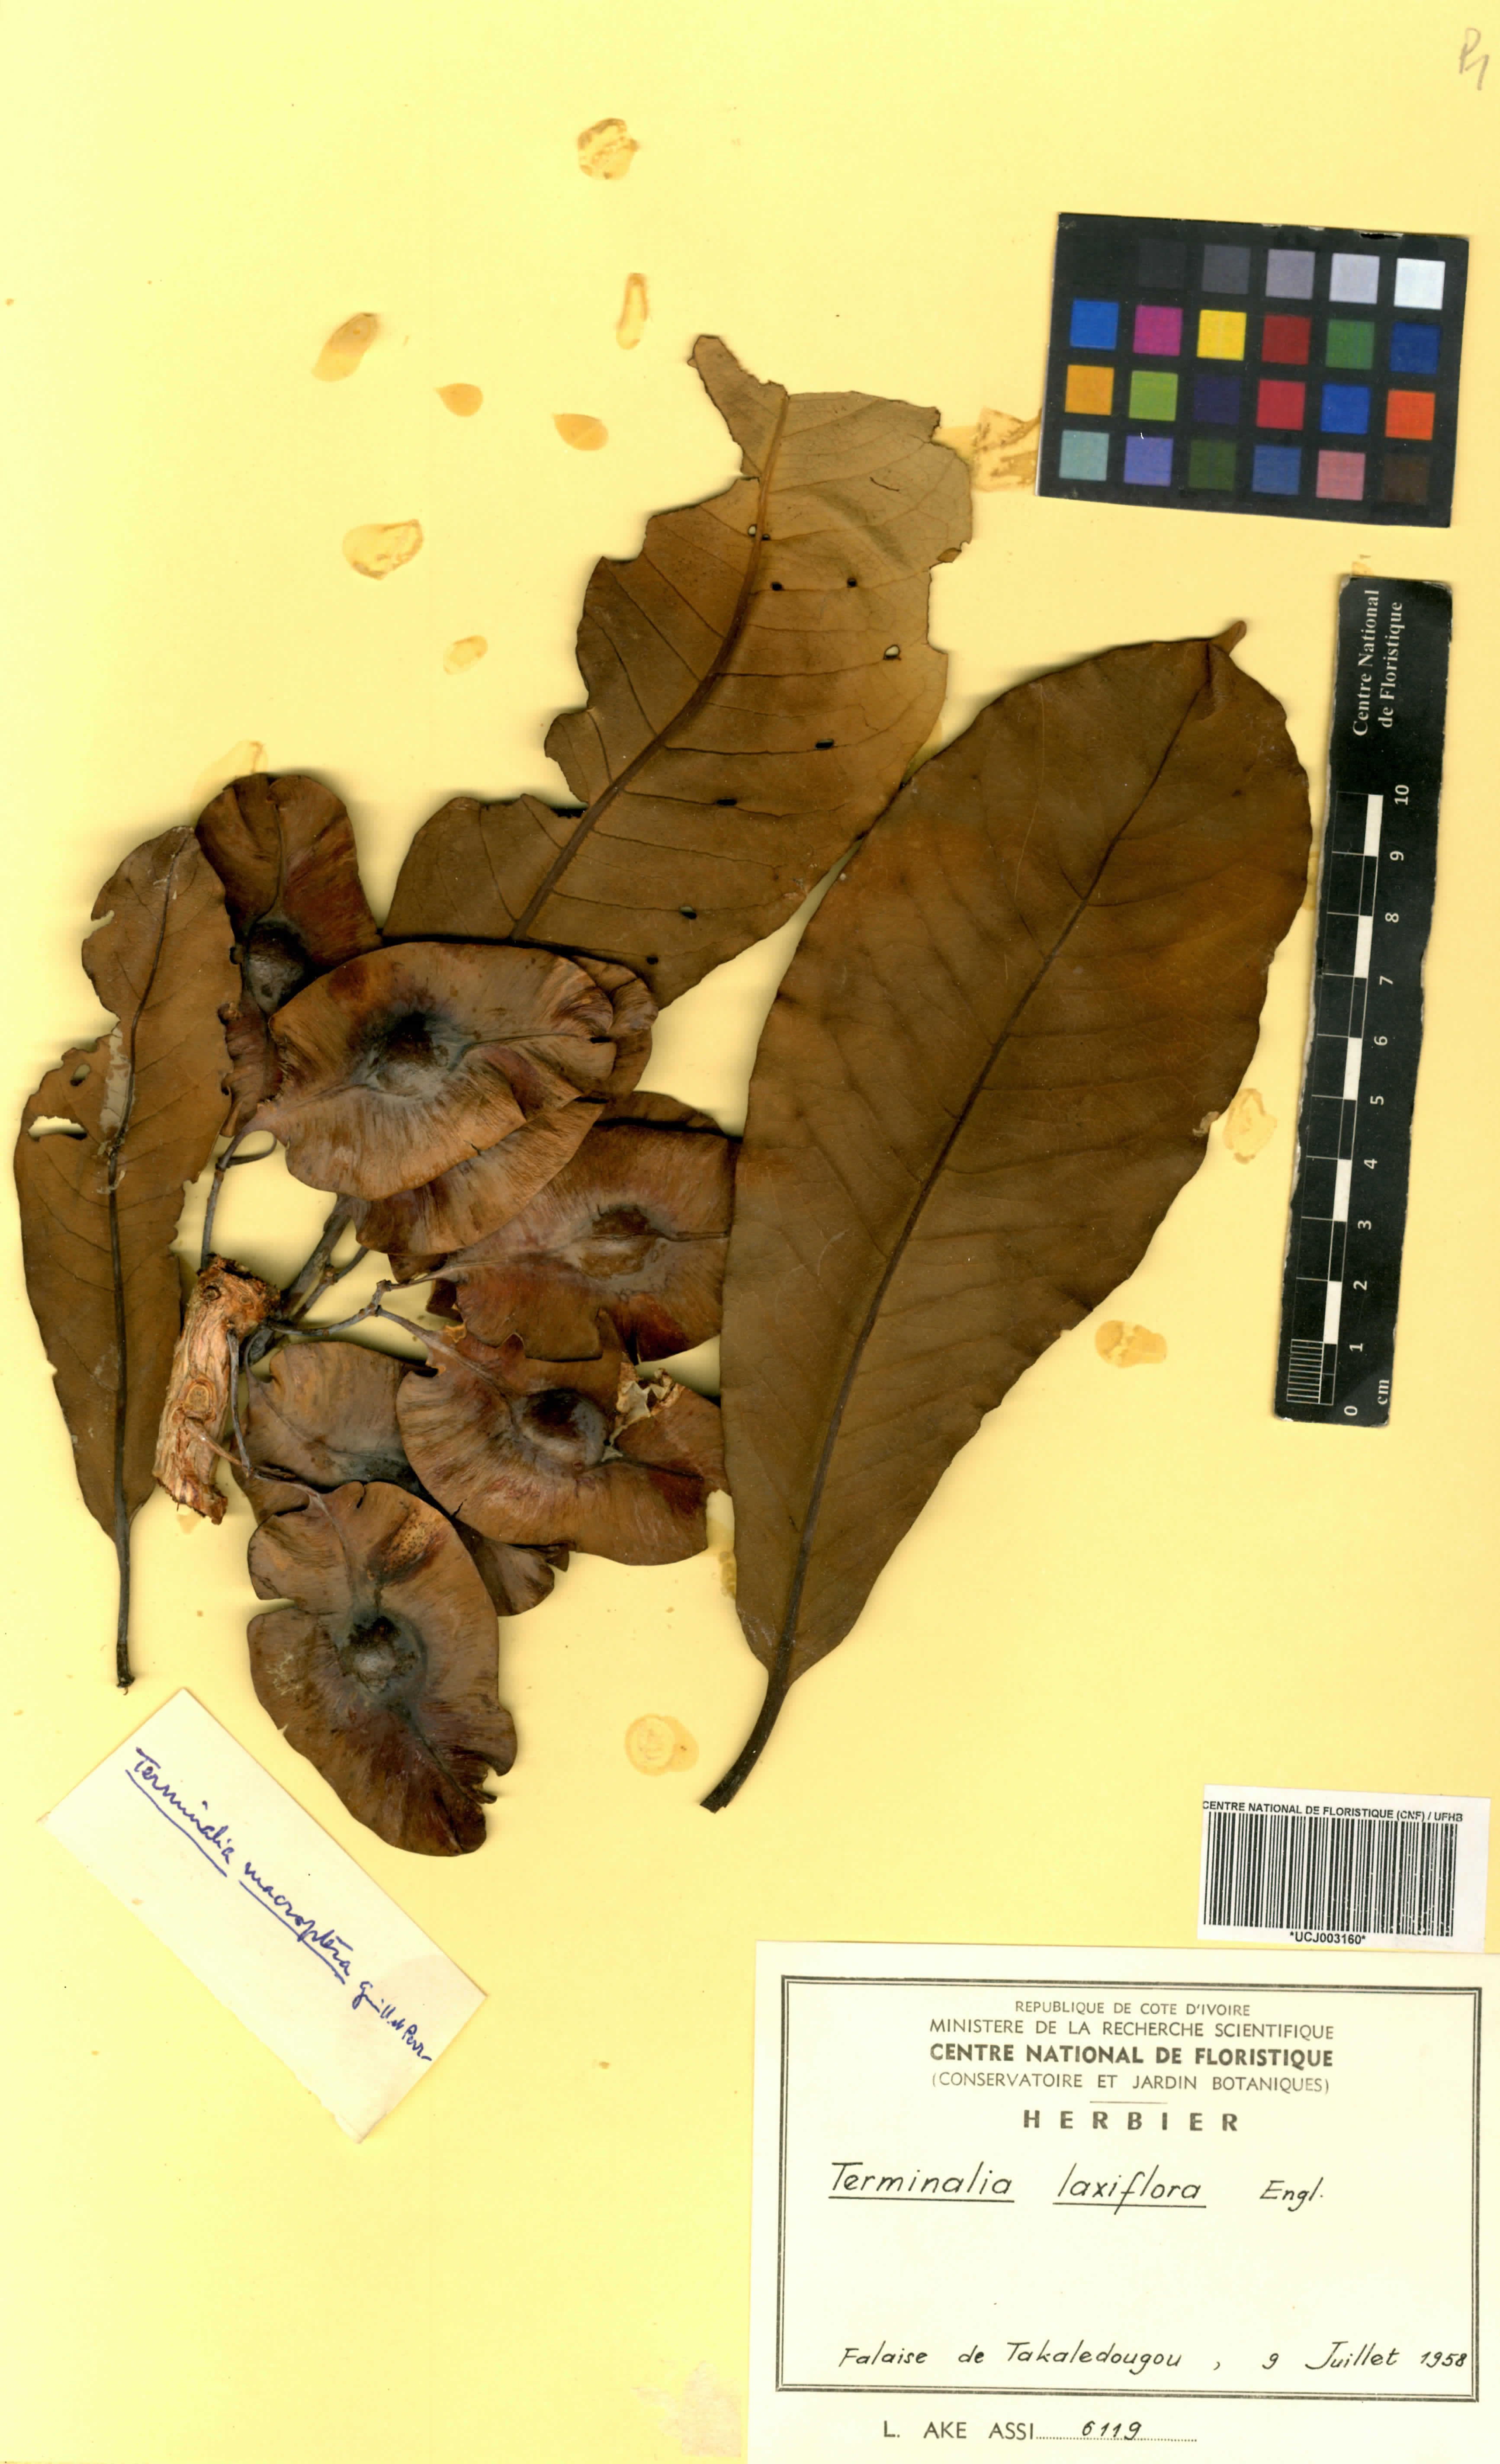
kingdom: Plantae
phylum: Tracheophyta
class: Magnoliopsida
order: Myrtales
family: Combretaceae
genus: Terminalia
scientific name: Terminalia laxiflora
